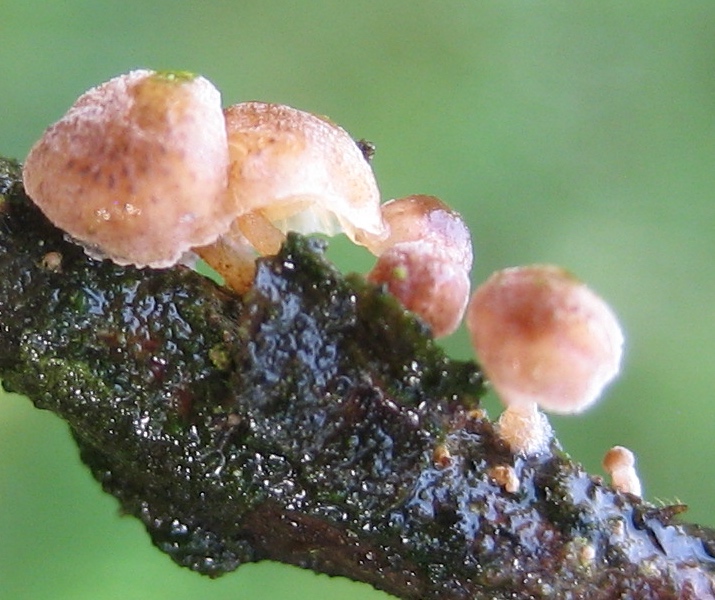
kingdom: Fungi
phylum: Basidiomycota
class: Agaricomycetes
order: Agaricales
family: Mycenaceae
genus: Mycena
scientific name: Mycena juniperina
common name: ene-Huesvamp
